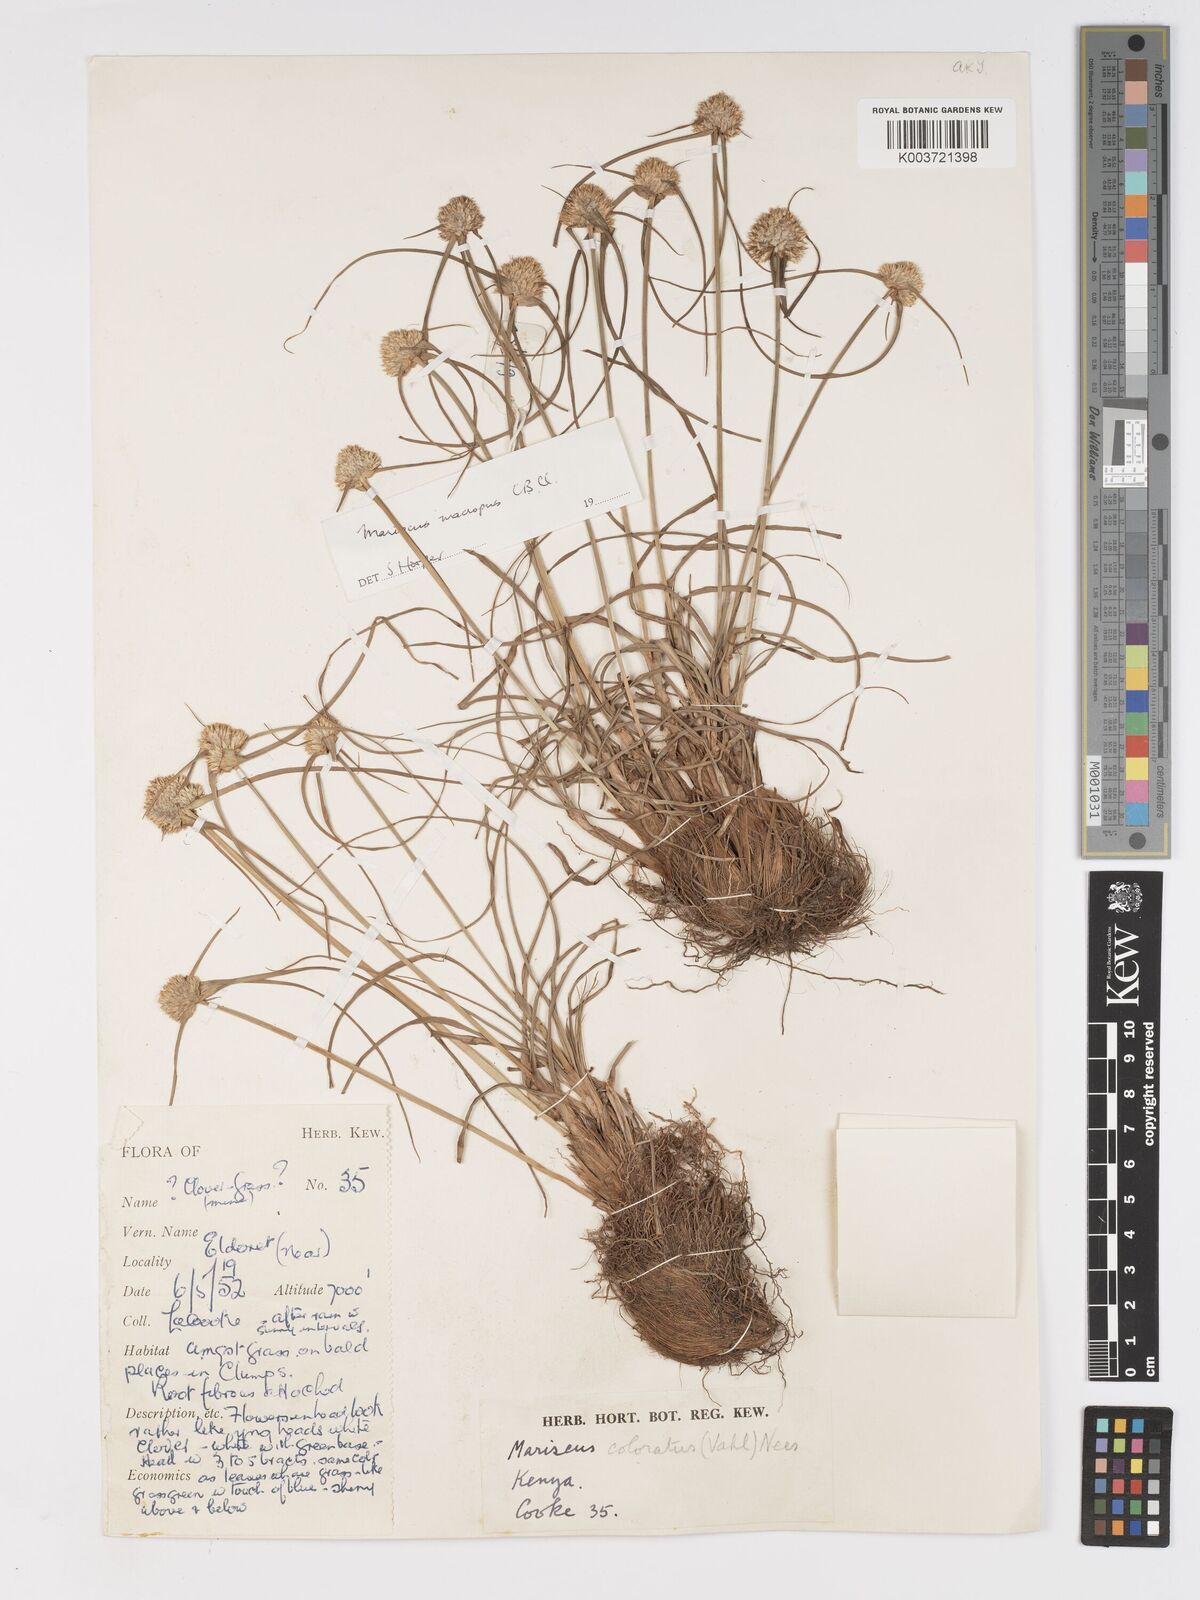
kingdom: Plantae
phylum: Tracheophyta
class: Liliopsida
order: Poales
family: Cyperaceae
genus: Cyperus
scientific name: Cyperus mollipes
